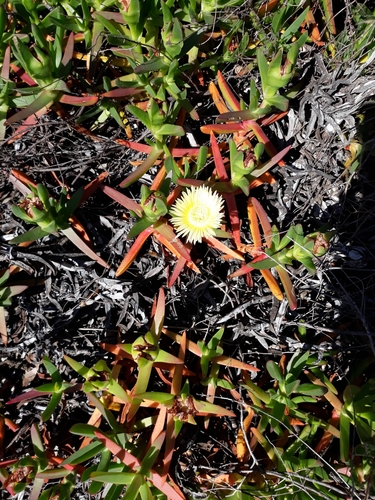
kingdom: Plantae
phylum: Tracheophyta
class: Magnoliopsida
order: Caryophyllales
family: Aizoaceae
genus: Carpobrotus
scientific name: Carpobrotus edulis
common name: Hottentot-fig
